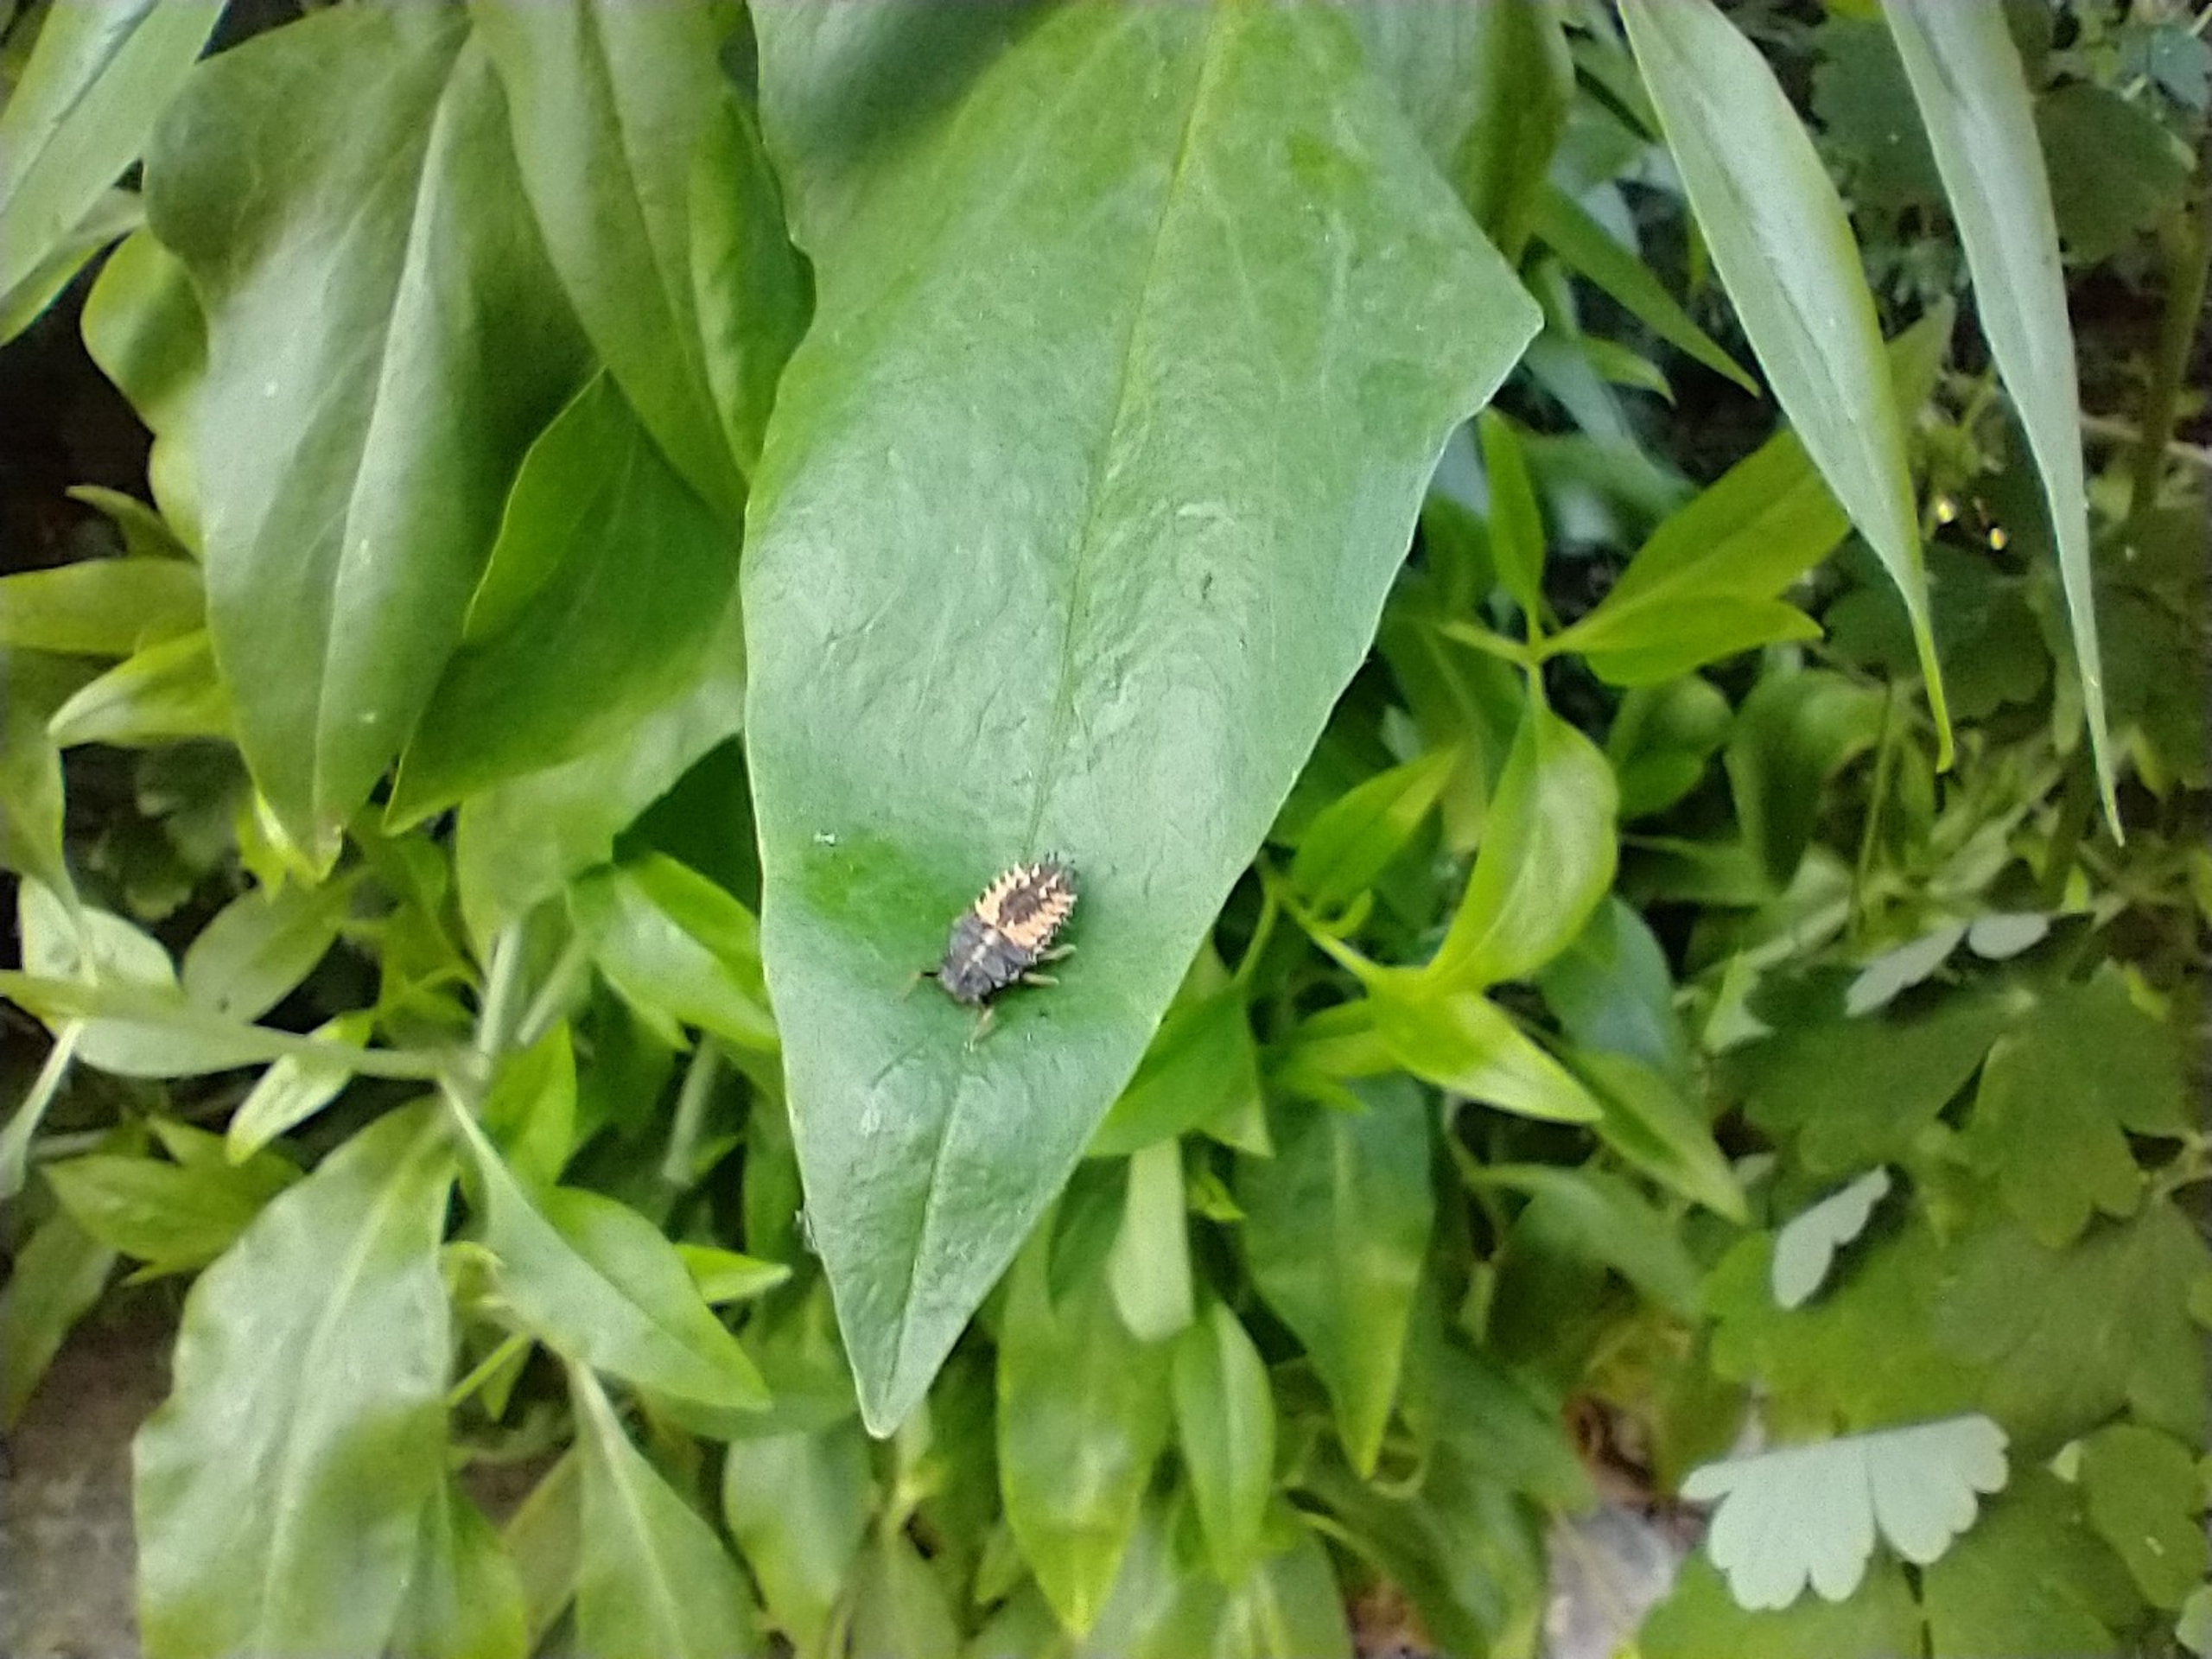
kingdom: Animalia
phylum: Arthropoda
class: Insecta
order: Coleoptera
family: Coccinellidae
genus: Harmonia
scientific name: Harmonia axyridis
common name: Harlekinmariehøne
